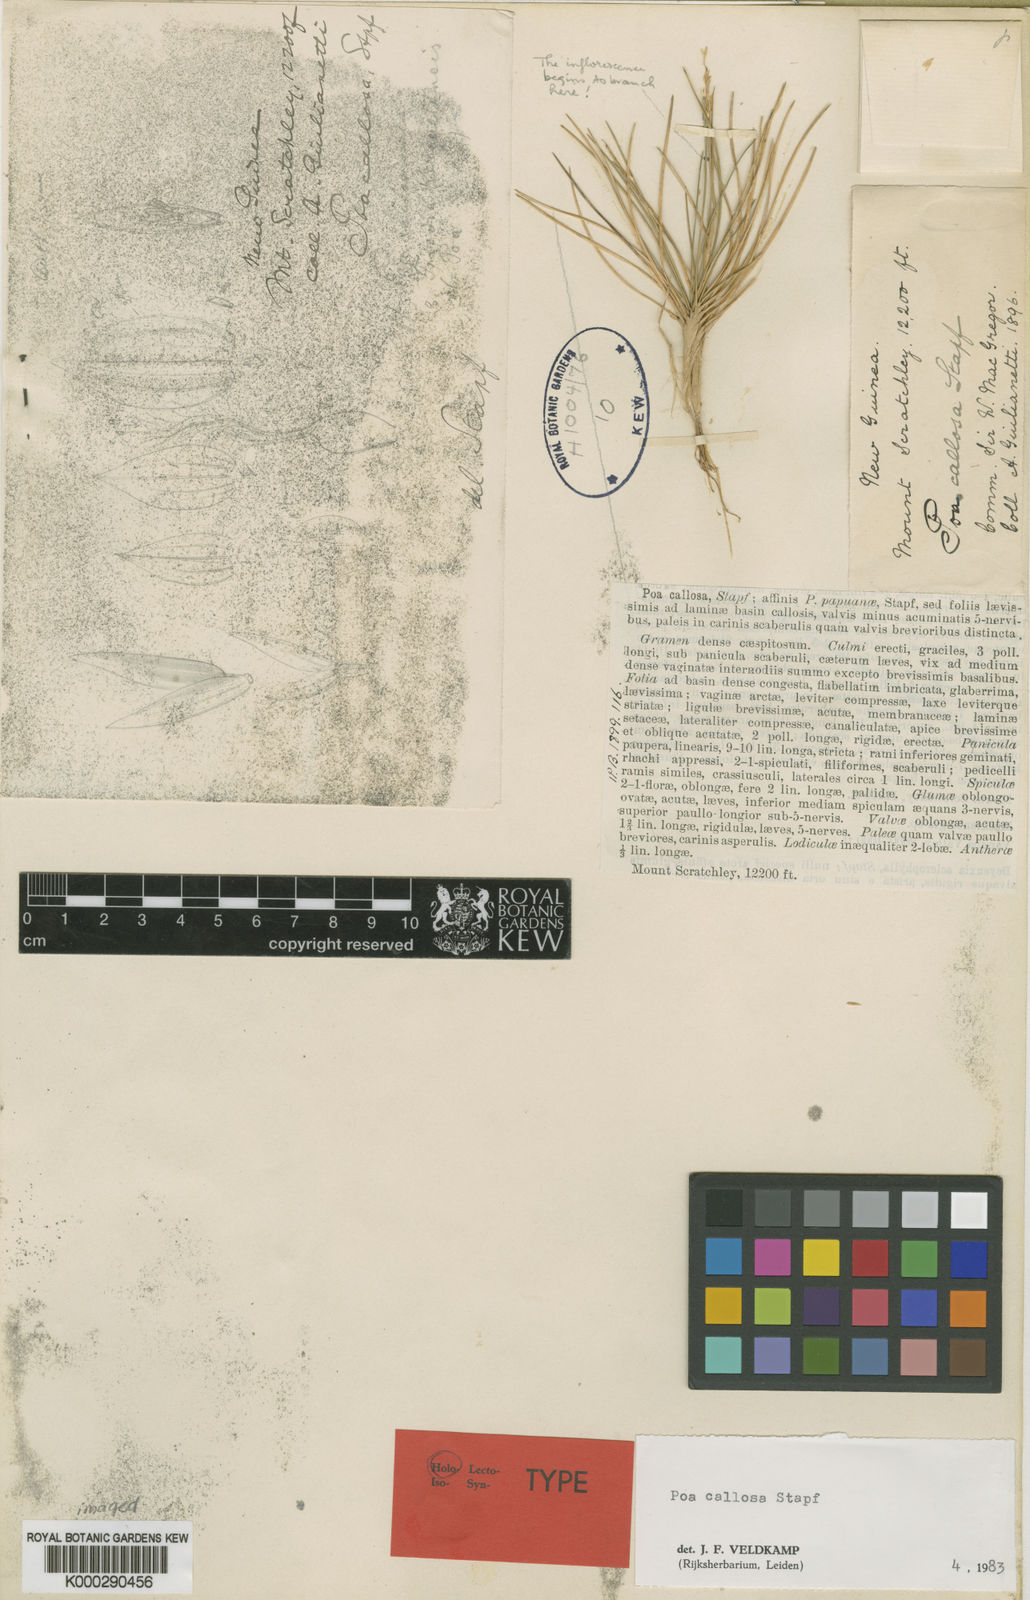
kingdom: Plantae
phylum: Tracheophyta
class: Liliopsida
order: Poales
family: Poaceae
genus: Poa
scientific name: Poa callosa
